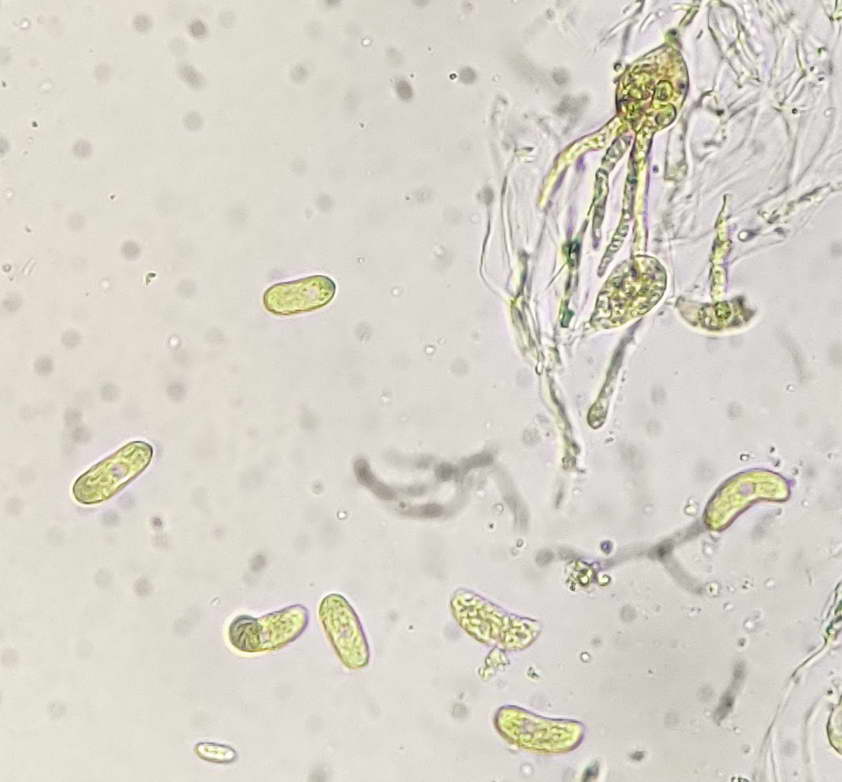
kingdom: Fungi
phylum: Basidiomycota
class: Tremellomycetes
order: Tremellales
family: Exidiaceae
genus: Exidiopsis
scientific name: Exidiopsis effusa
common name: smuk bævrehinde
